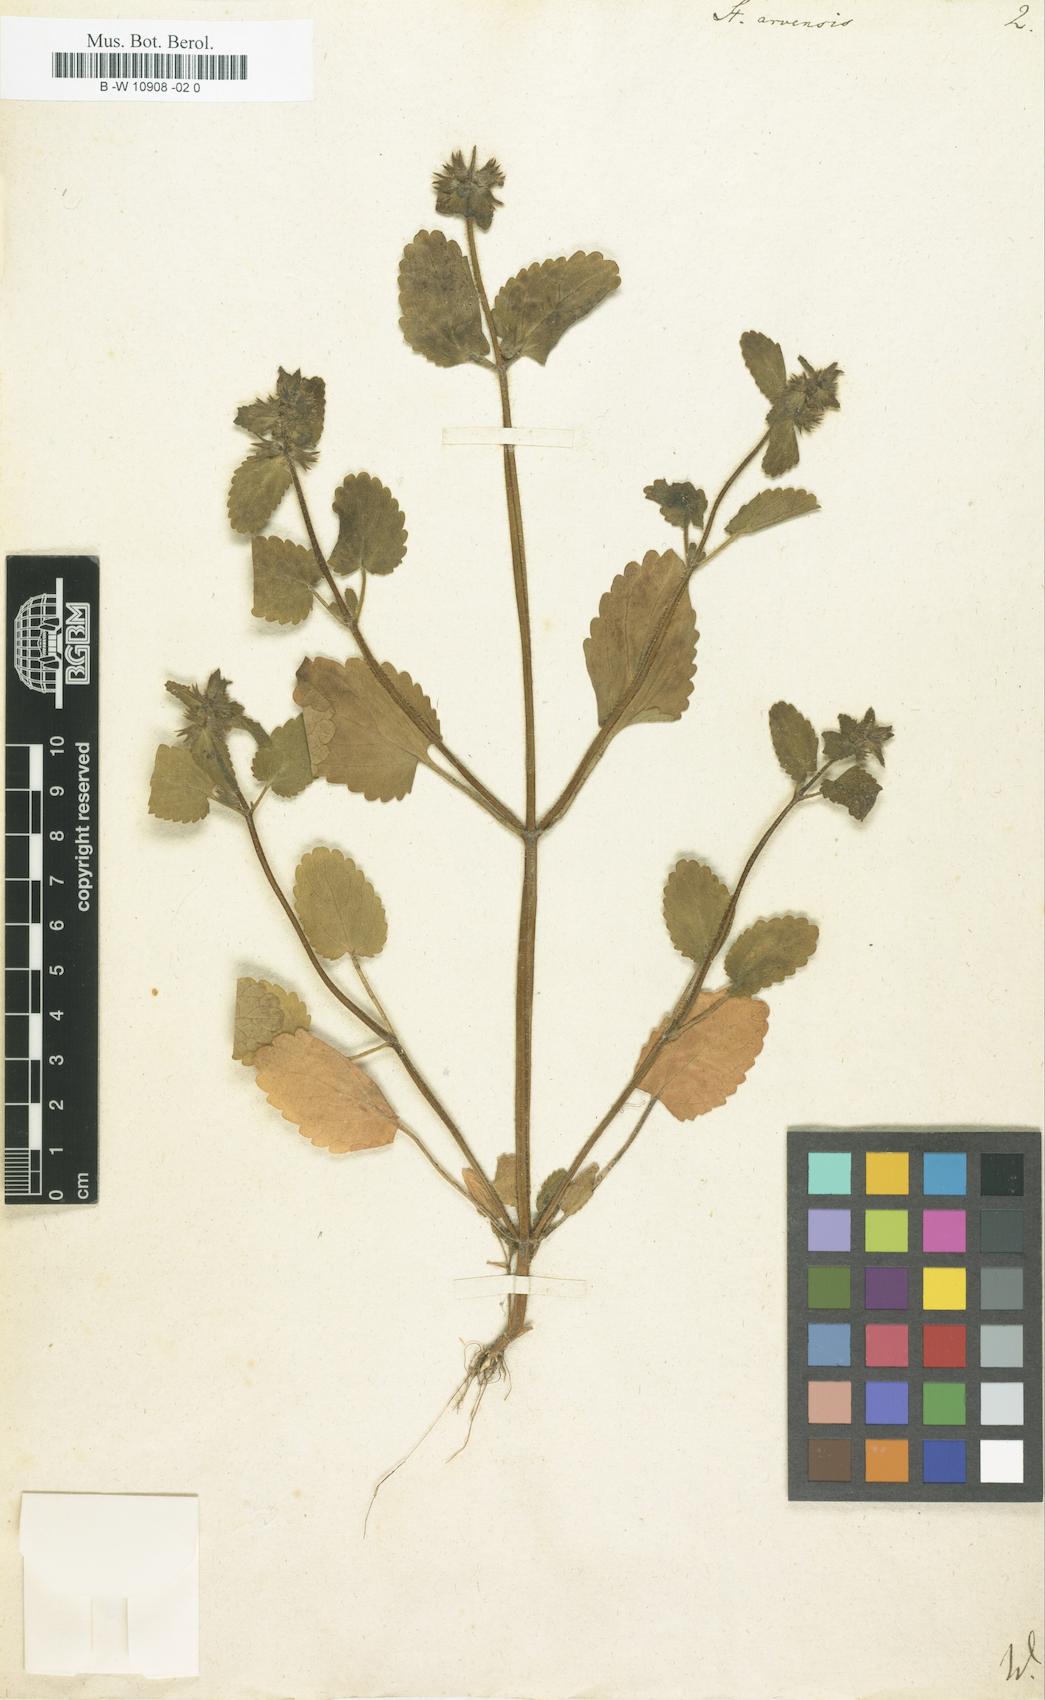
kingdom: Plantae
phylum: Tracheophyta
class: Magnoliopsida
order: Lamiales
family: Lamiaceae
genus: Stachys
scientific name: Stachys arvensis
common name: Field woundwort
